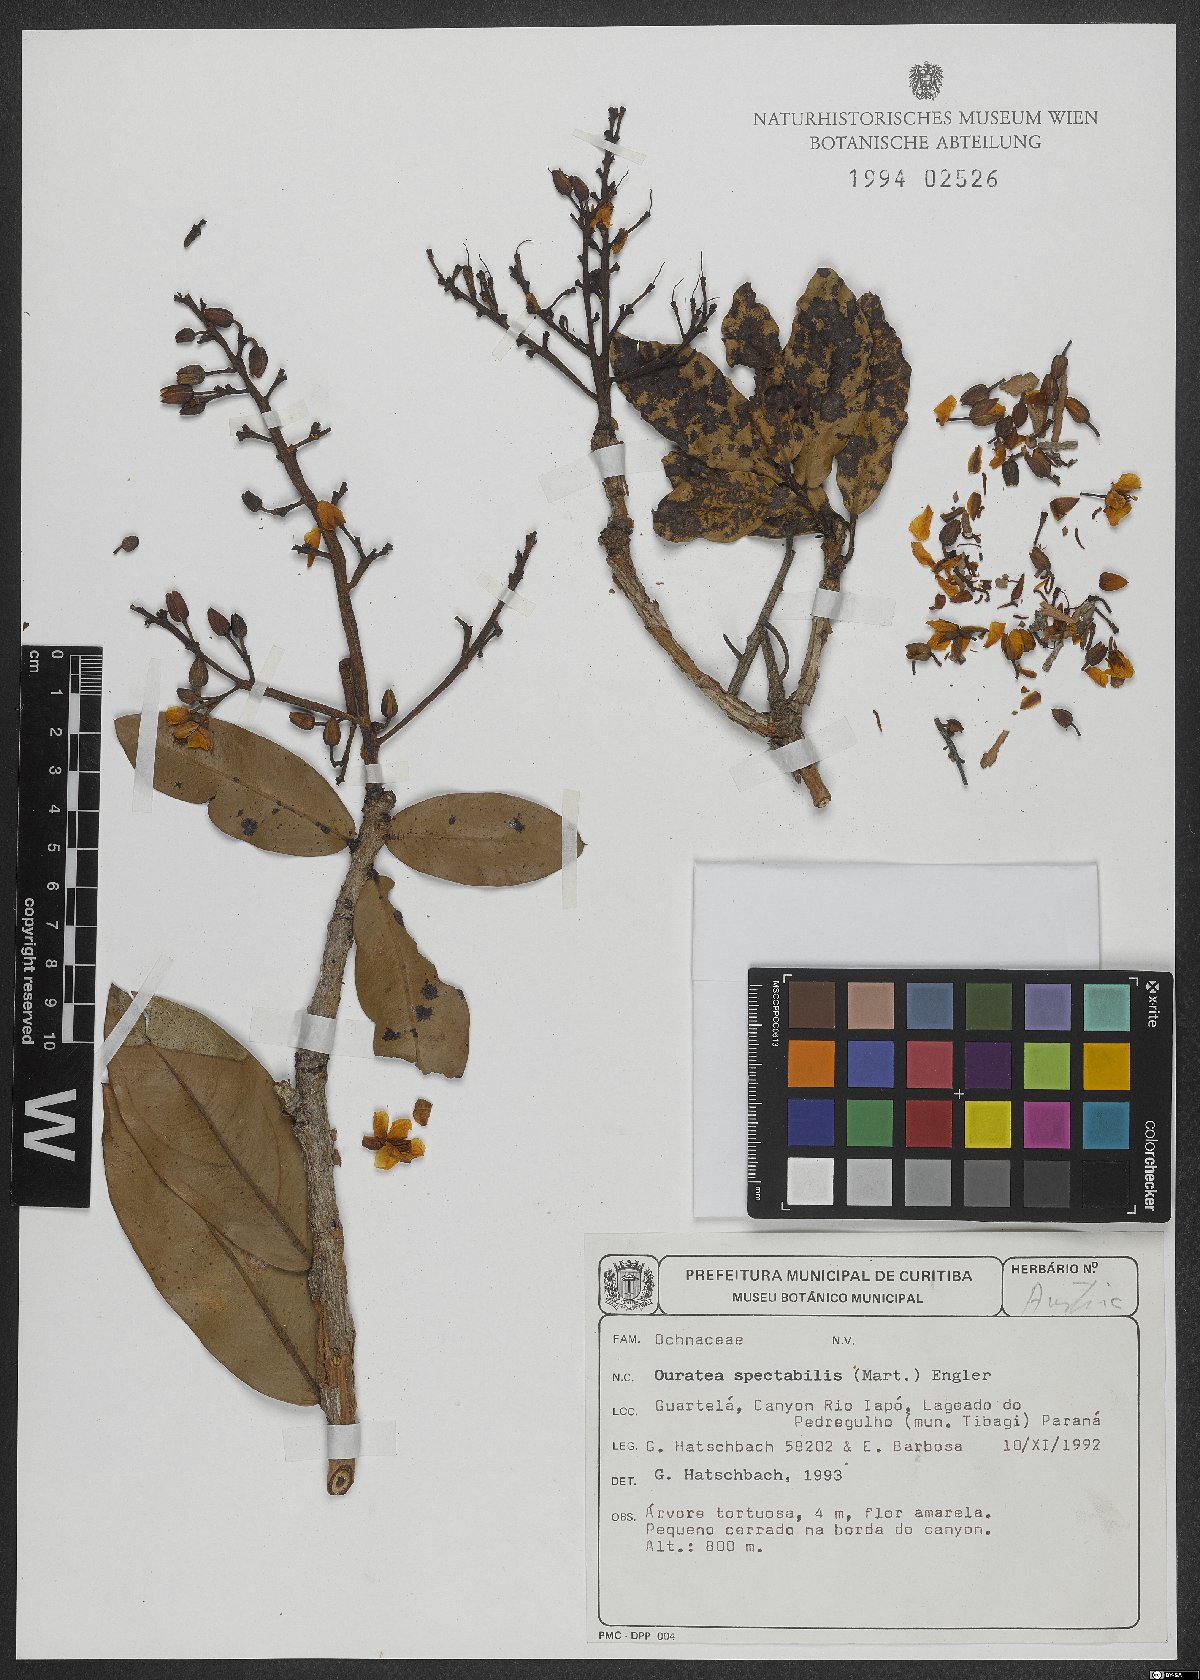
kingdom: Plantae
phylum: Tracheophyta
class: Magnoliopsida
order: Malpighiales
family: Ochnaceae
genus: Ouratea
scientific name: Ouratea spectabilis
